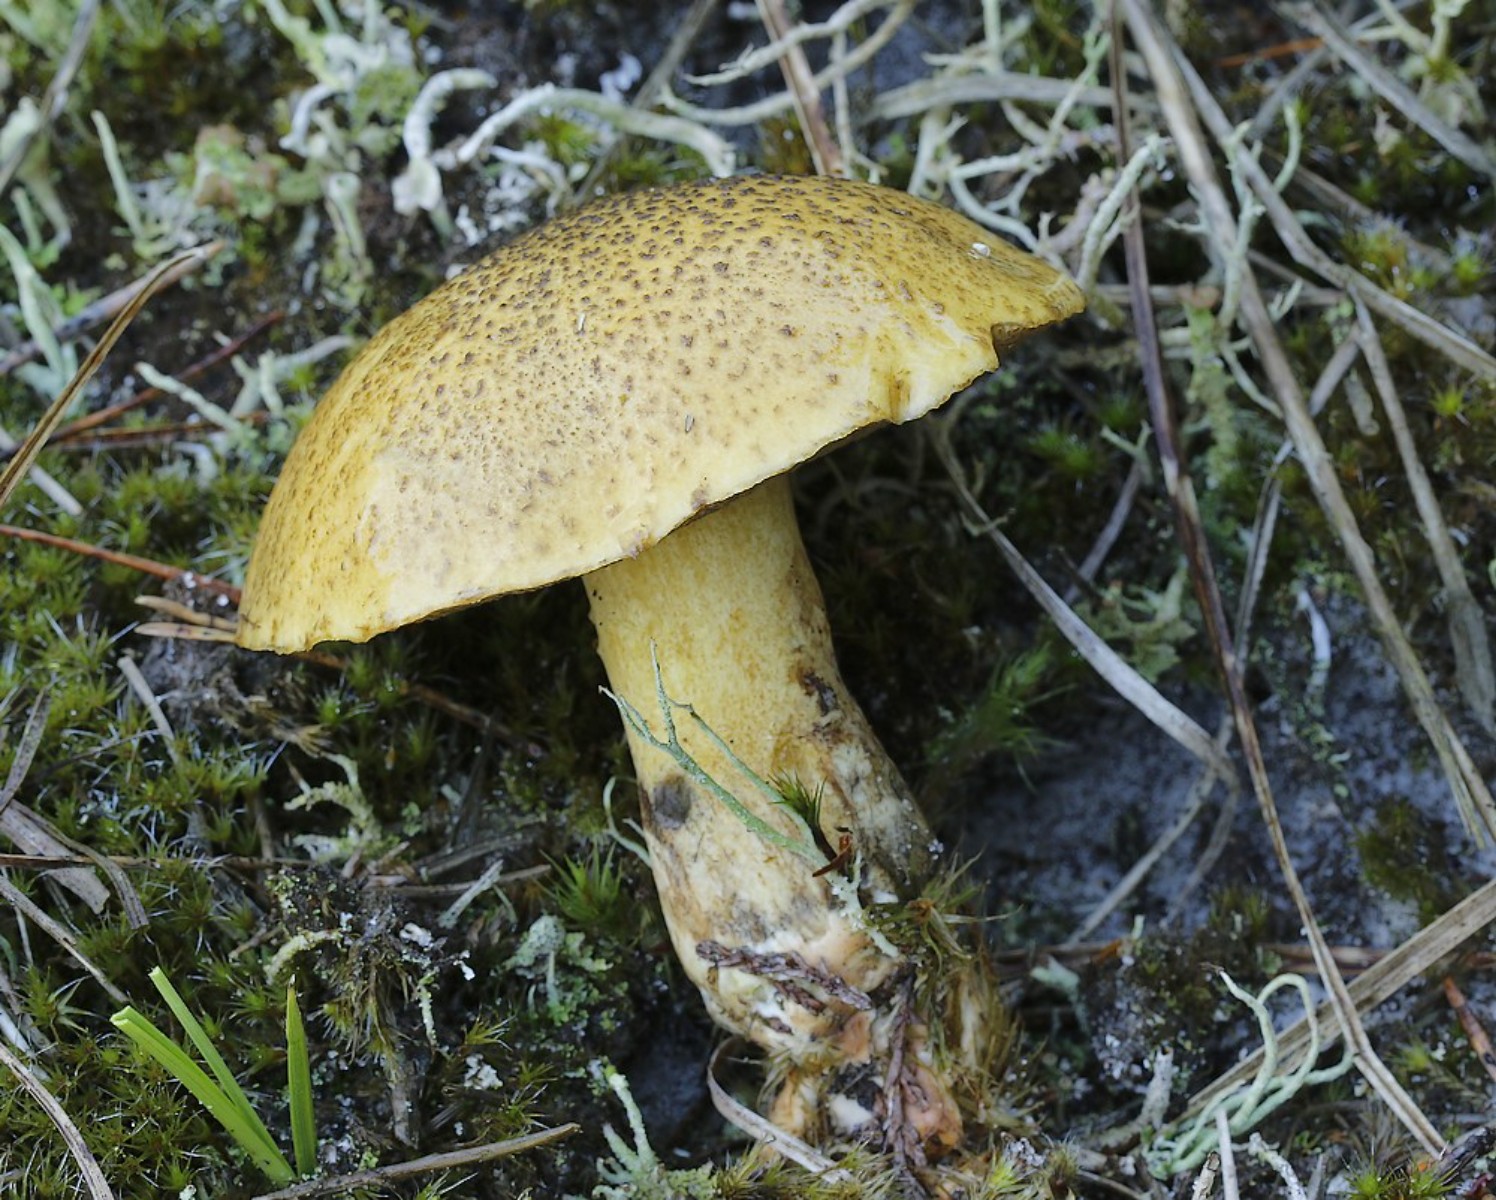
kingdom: Fungi
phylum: Basidiomycota
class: Agaricomycetes
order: Boletales
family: Suillaceae
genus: Suillus
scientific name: Suillus variegatus
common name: broget slimrørhat
